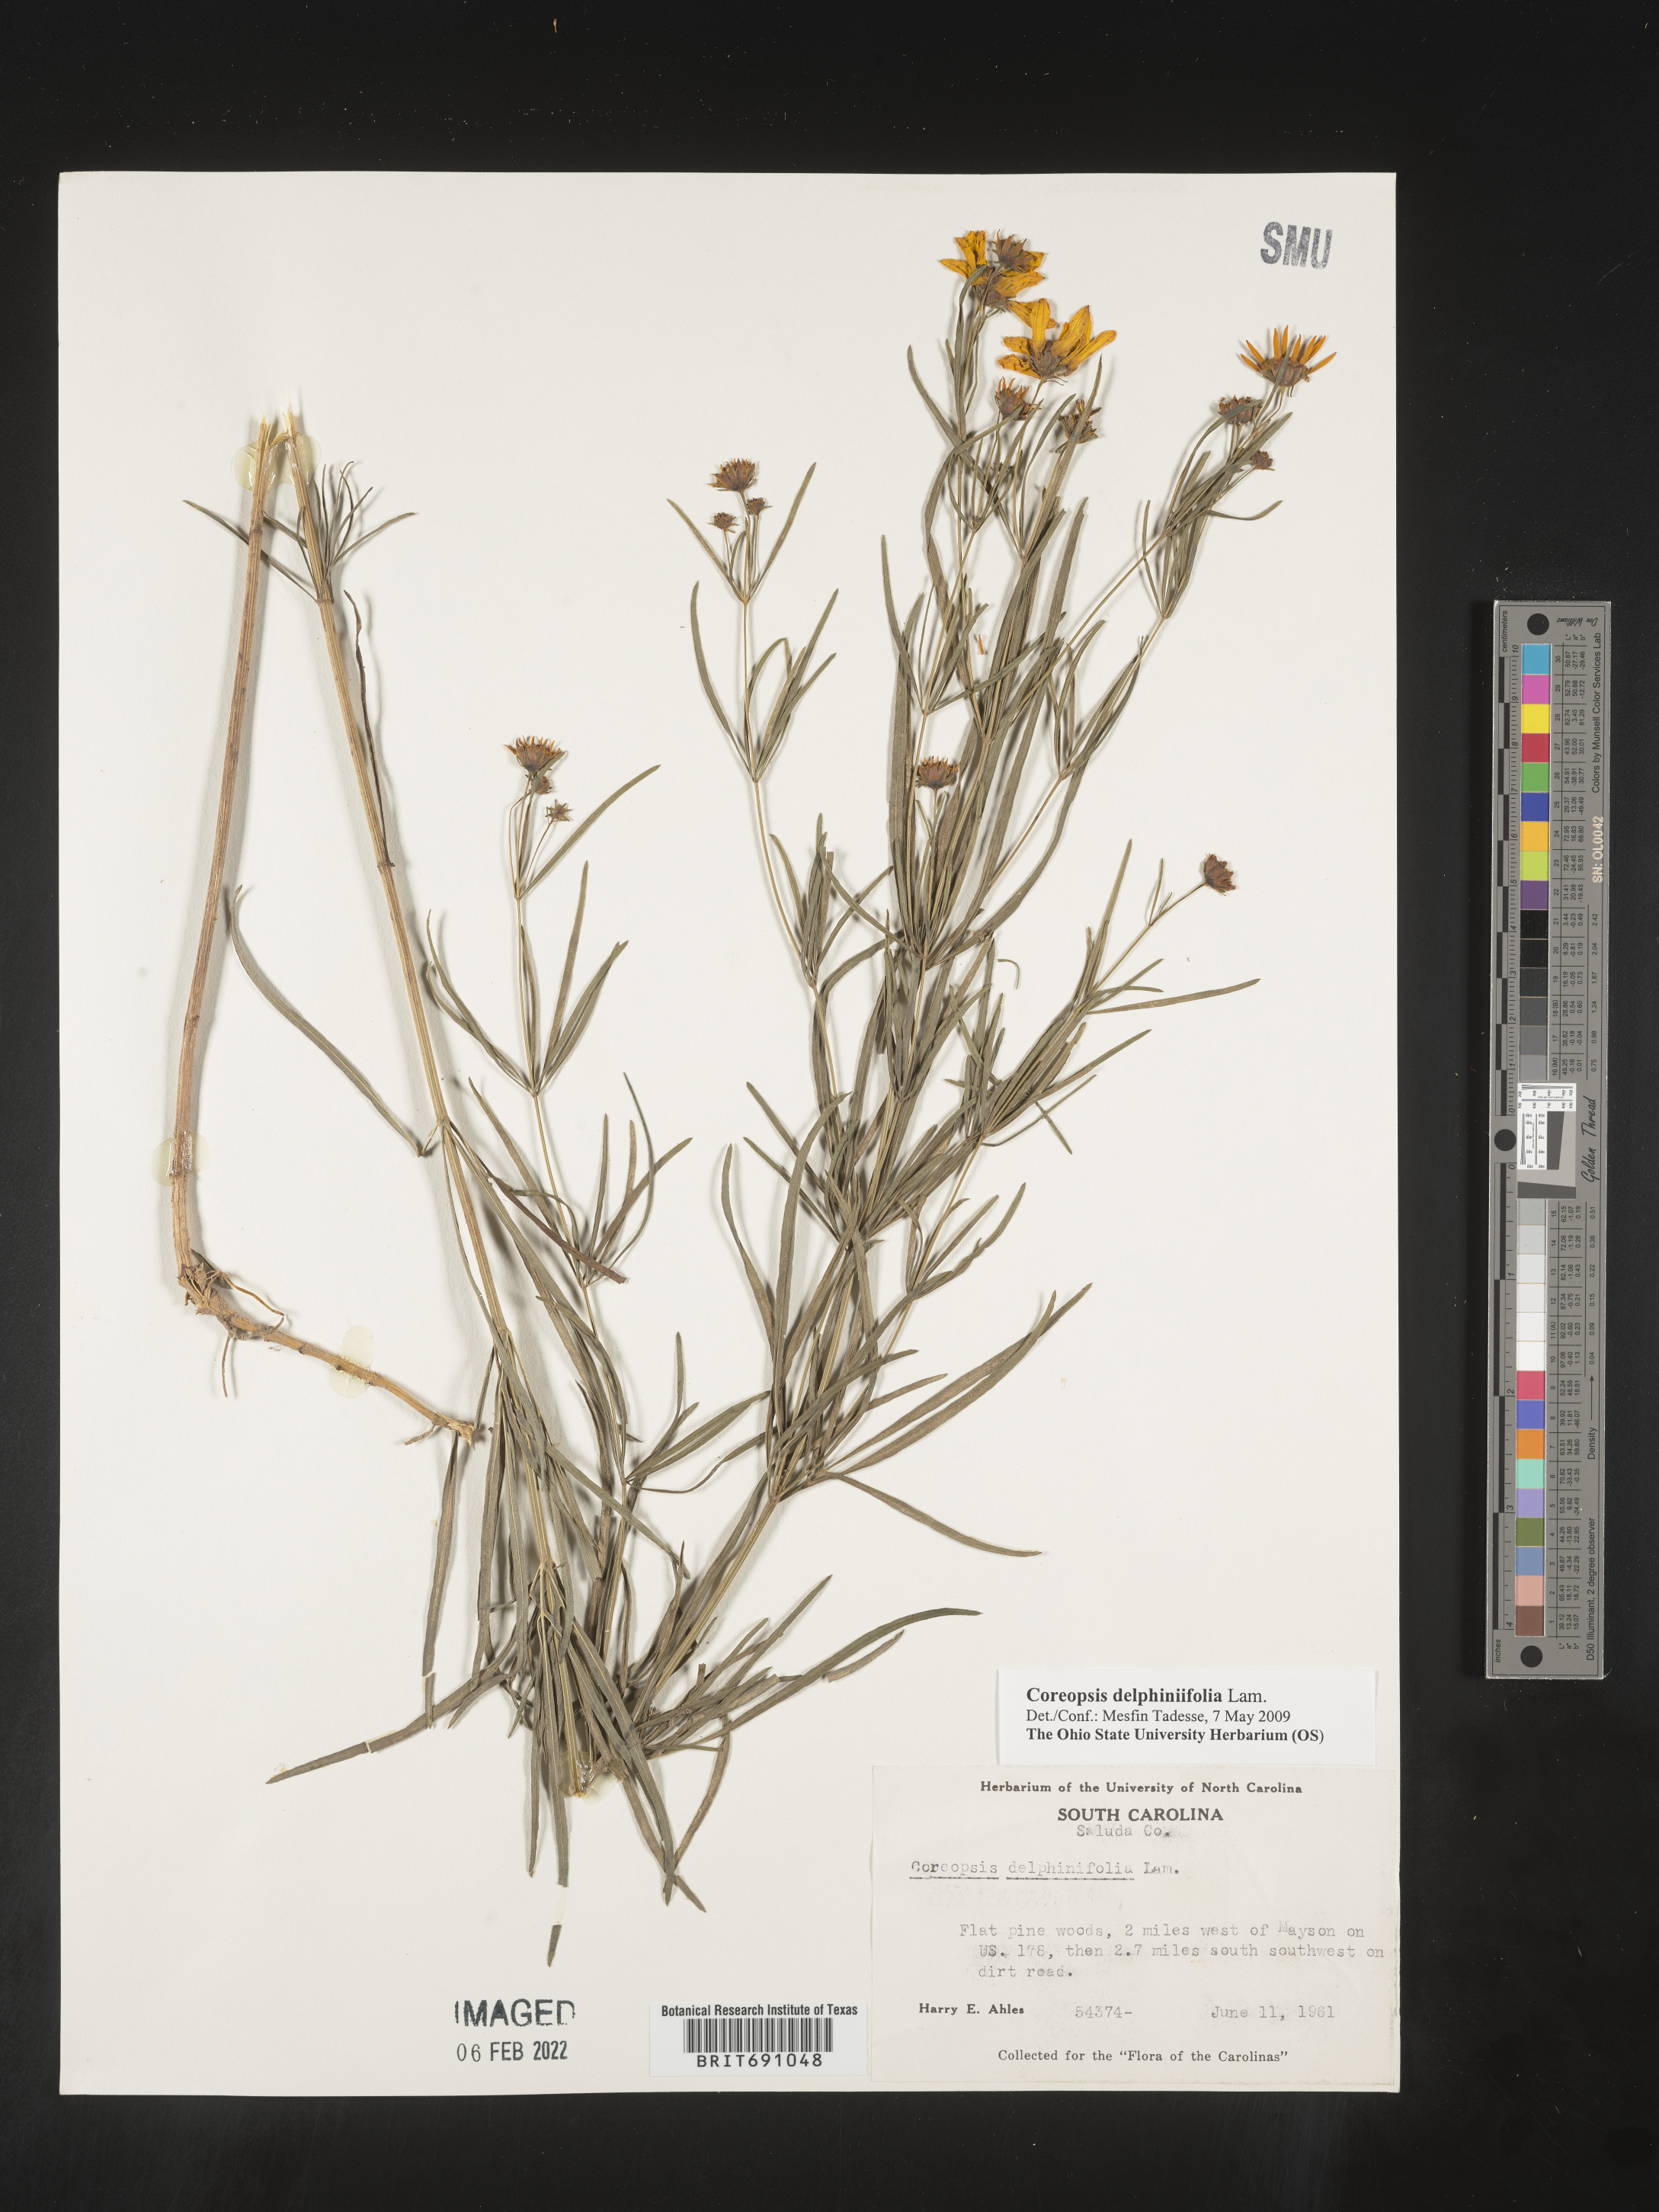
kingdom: Plantae
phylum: Tracheophyta
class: Magnoliopsida
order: Asterales
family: Asteraceae
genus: Coreopsis
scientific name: Coreopsis
